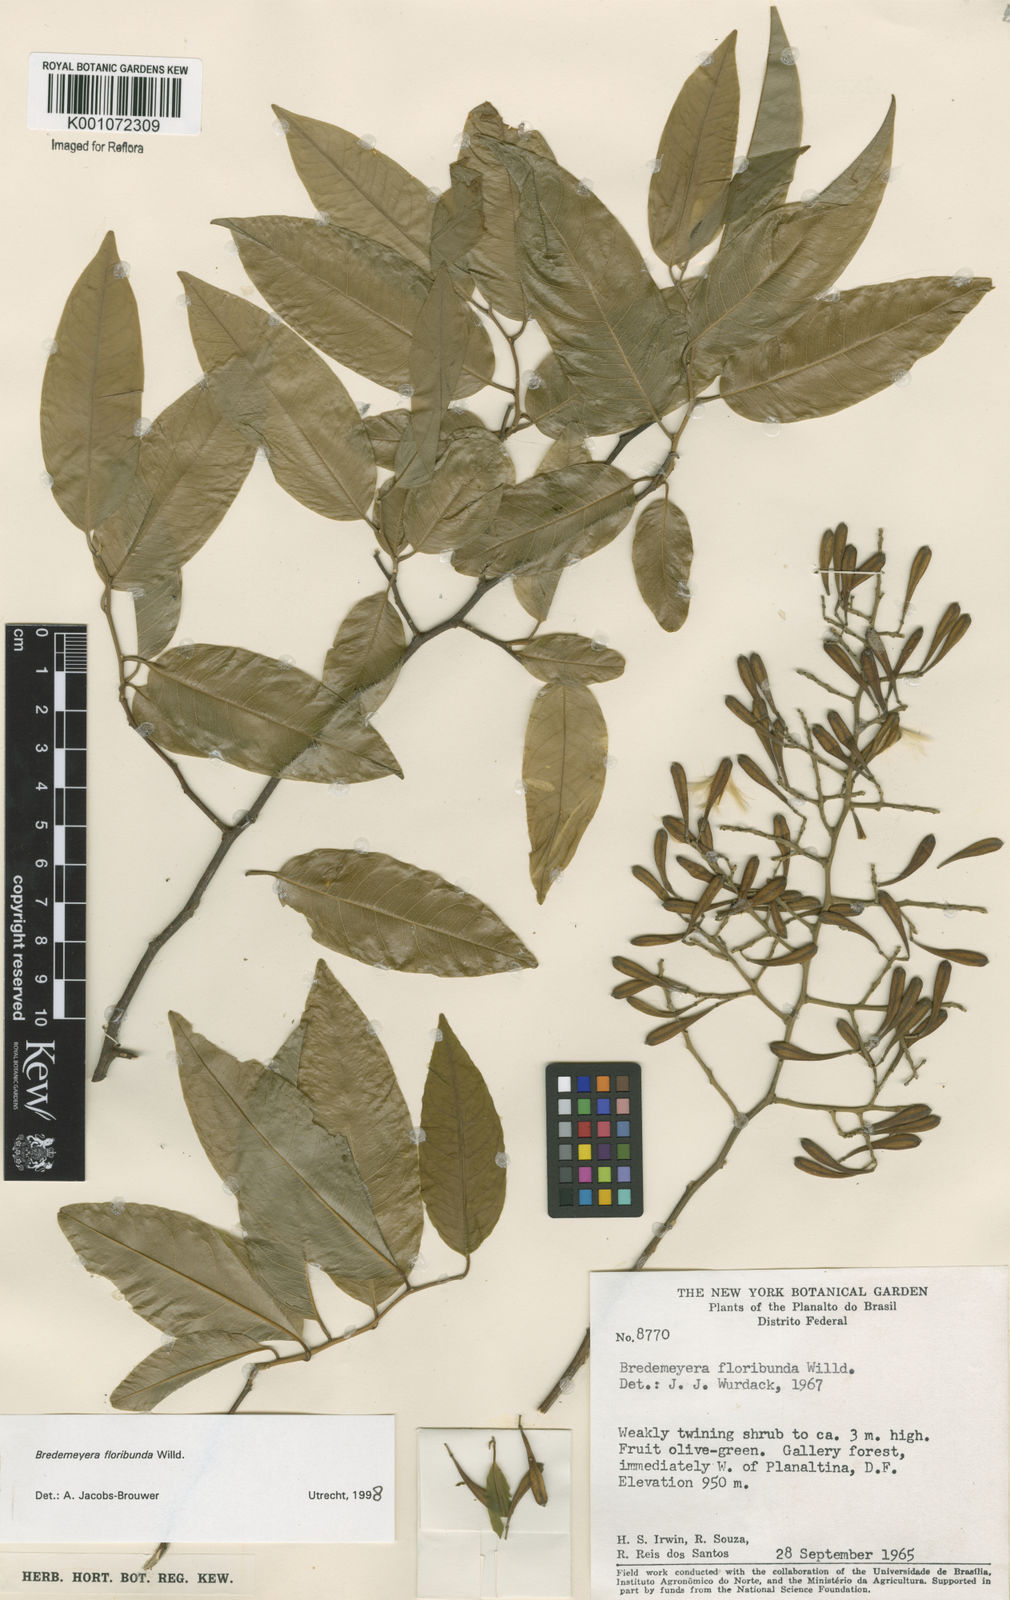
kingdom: Plantae
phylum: Tracheophyta
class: Magnoliopsida
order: Fabales
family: Polygalaceae
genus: Bredemeyera
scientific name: Bredemeyera floribunda
